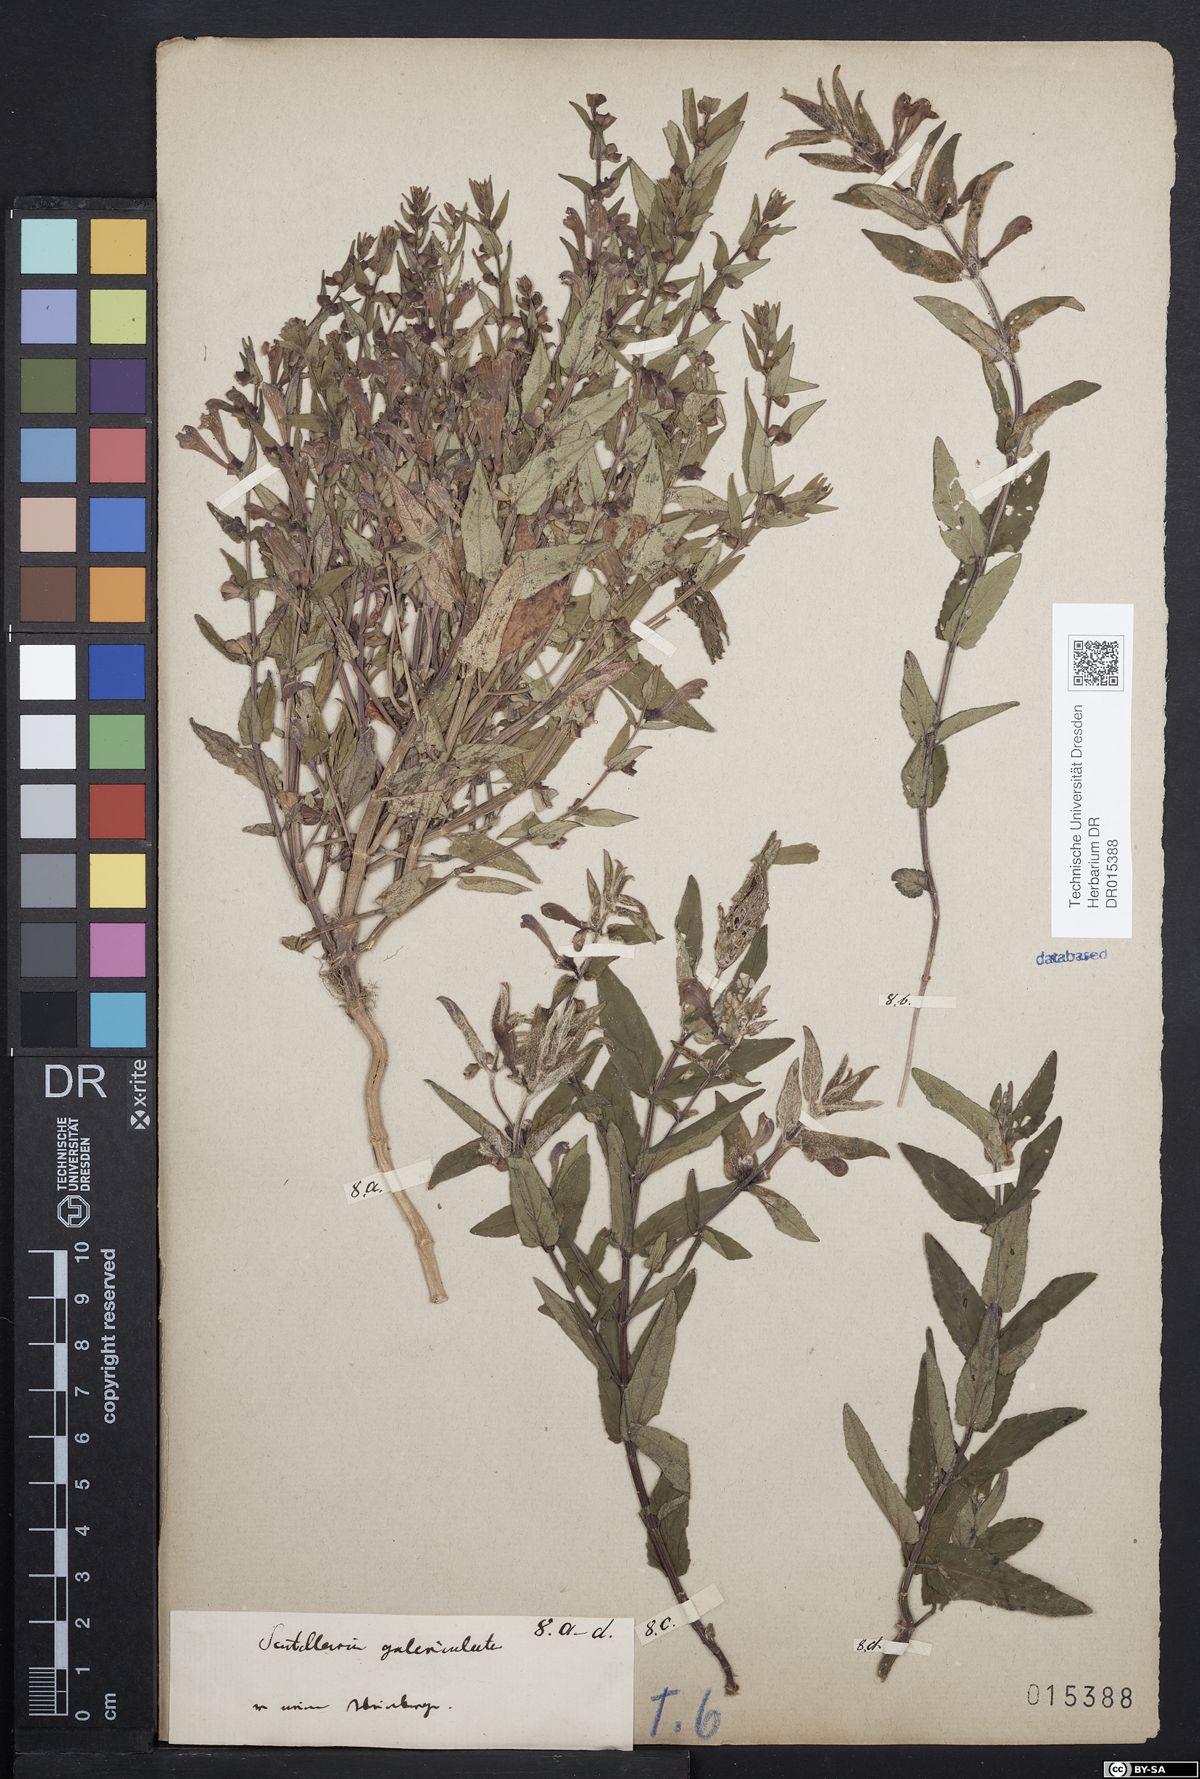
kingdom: Plantae
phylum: Tracheophyta
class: Magnoliopsida
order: Lamiales
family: Lamiaceae
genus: Scutellaria
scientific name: Scutellaria galericulata
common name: Skullcap
